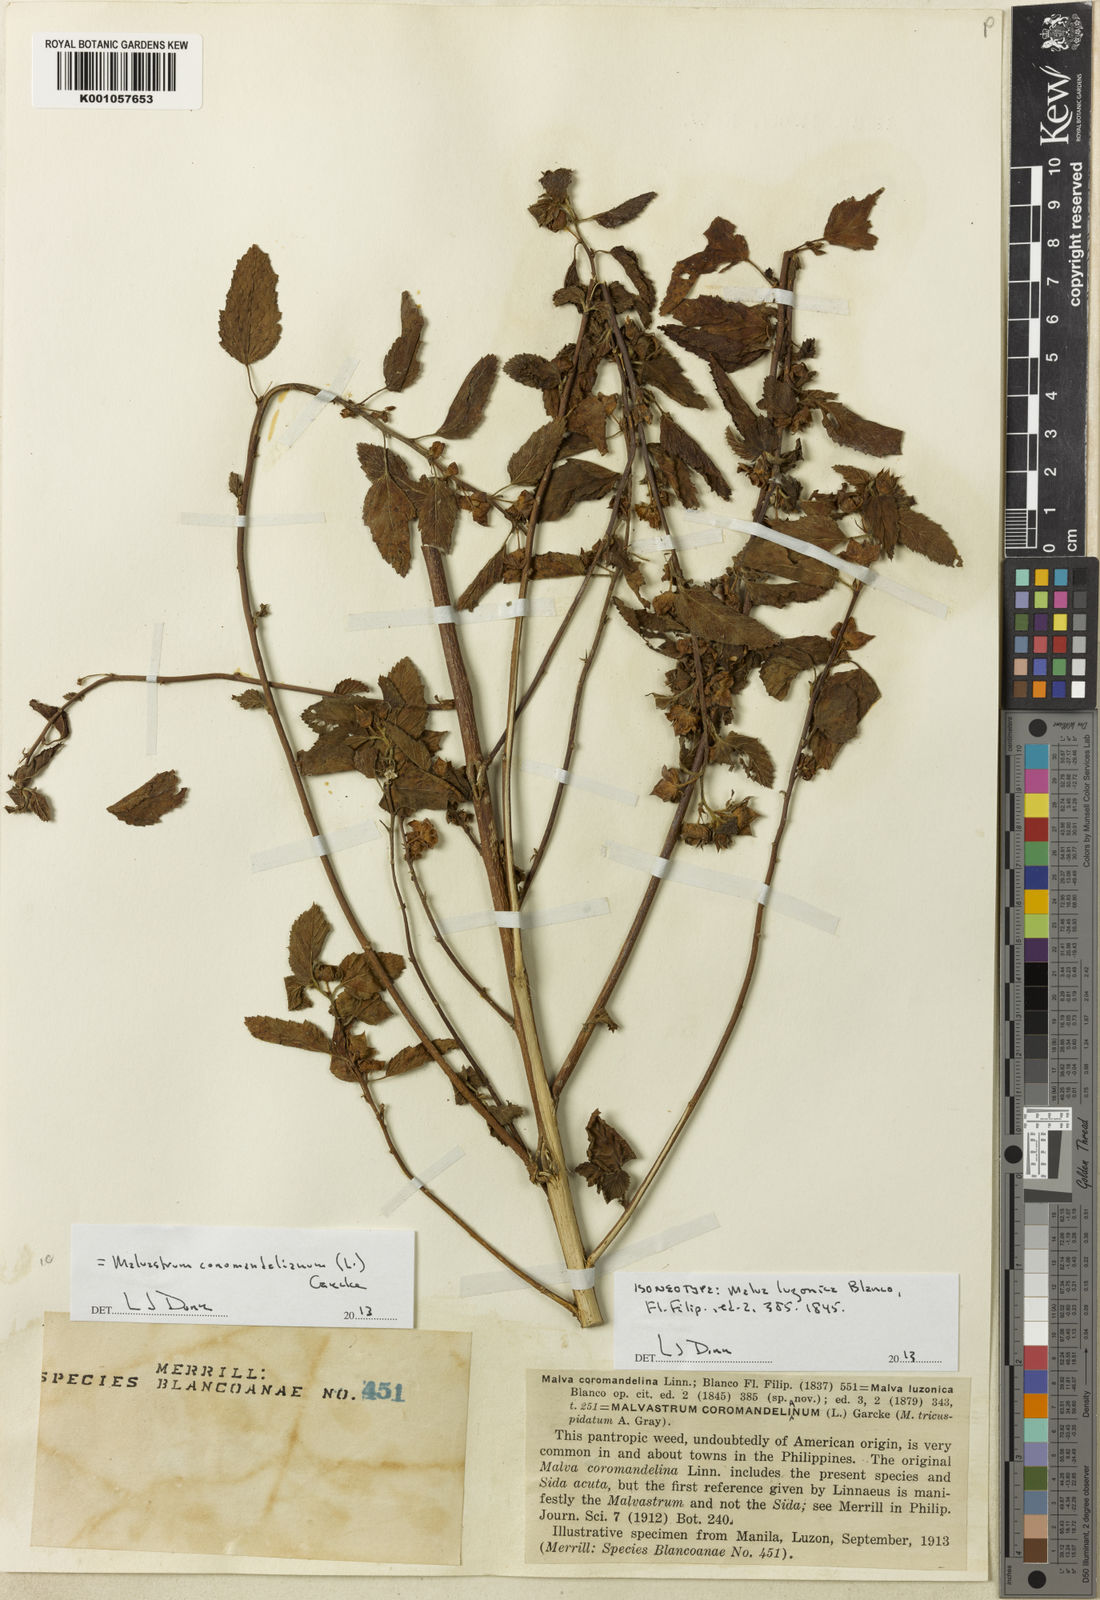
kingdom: Plantae
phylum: Tracheophyta
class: Magnoliopsida
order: Malvales
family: Malvaceae
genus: Malvastrum
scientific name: Malvastrum coromandelianum
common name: Threelobe false mallow
